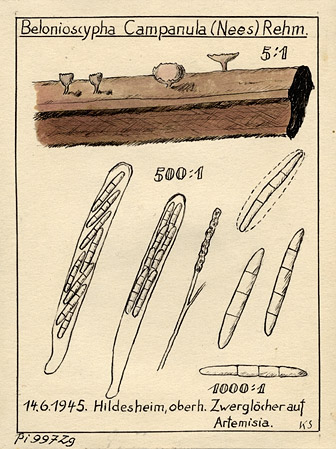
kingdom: Fungi
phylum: Basidiomycota
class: Agaricomycetes
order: Agaricales
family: Marasmiaceae
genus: Calyptella
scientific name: Calyptella campanula
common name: Bell hoodie
